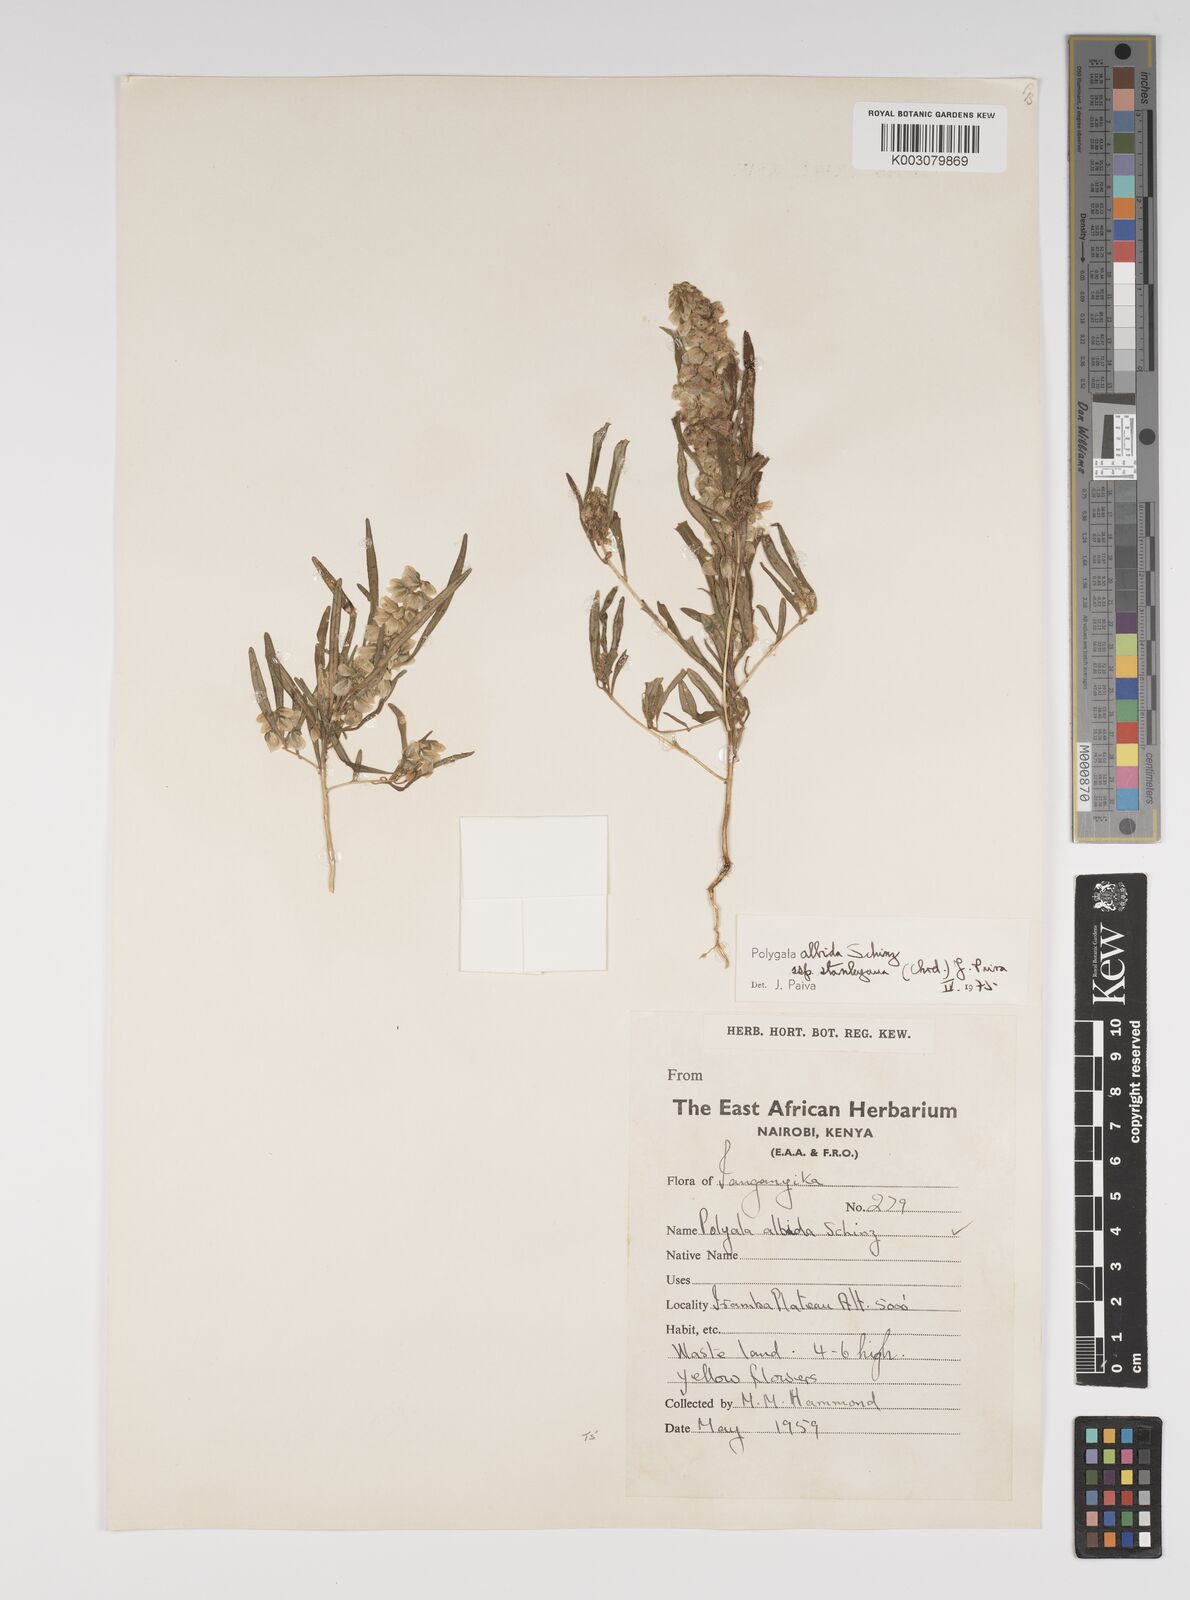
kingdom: Plantae
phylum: Tracheophyta
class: Magnoliopsida
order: Fabales
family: Polygalaceae
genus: Polygala
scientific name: Polygala albida
